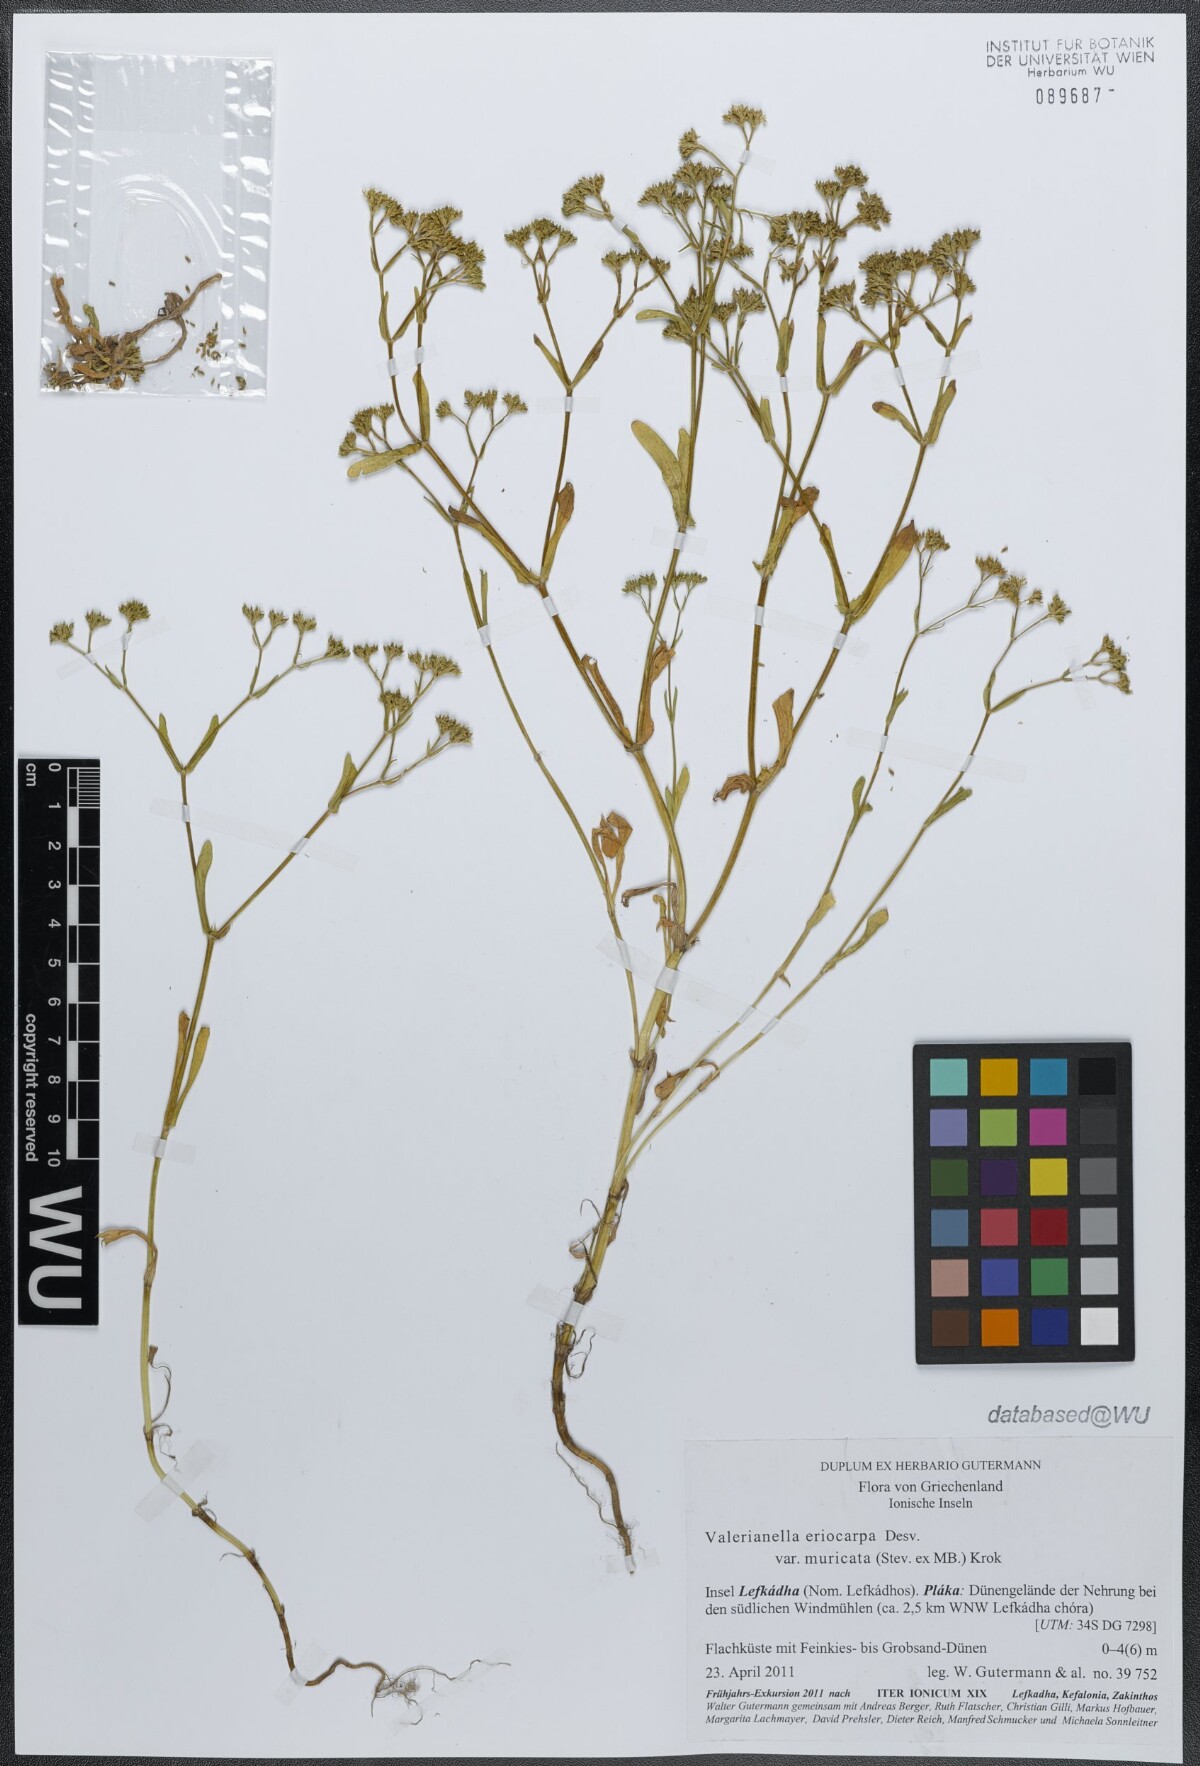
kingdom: Plantae
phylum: Tracheophyta
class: Magnoliopsida
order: Dipsacales
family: Caprifoliaceae
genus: Valerianella
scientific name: Valerianella eriocarpa
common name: Hairy-fruited cornsalad
